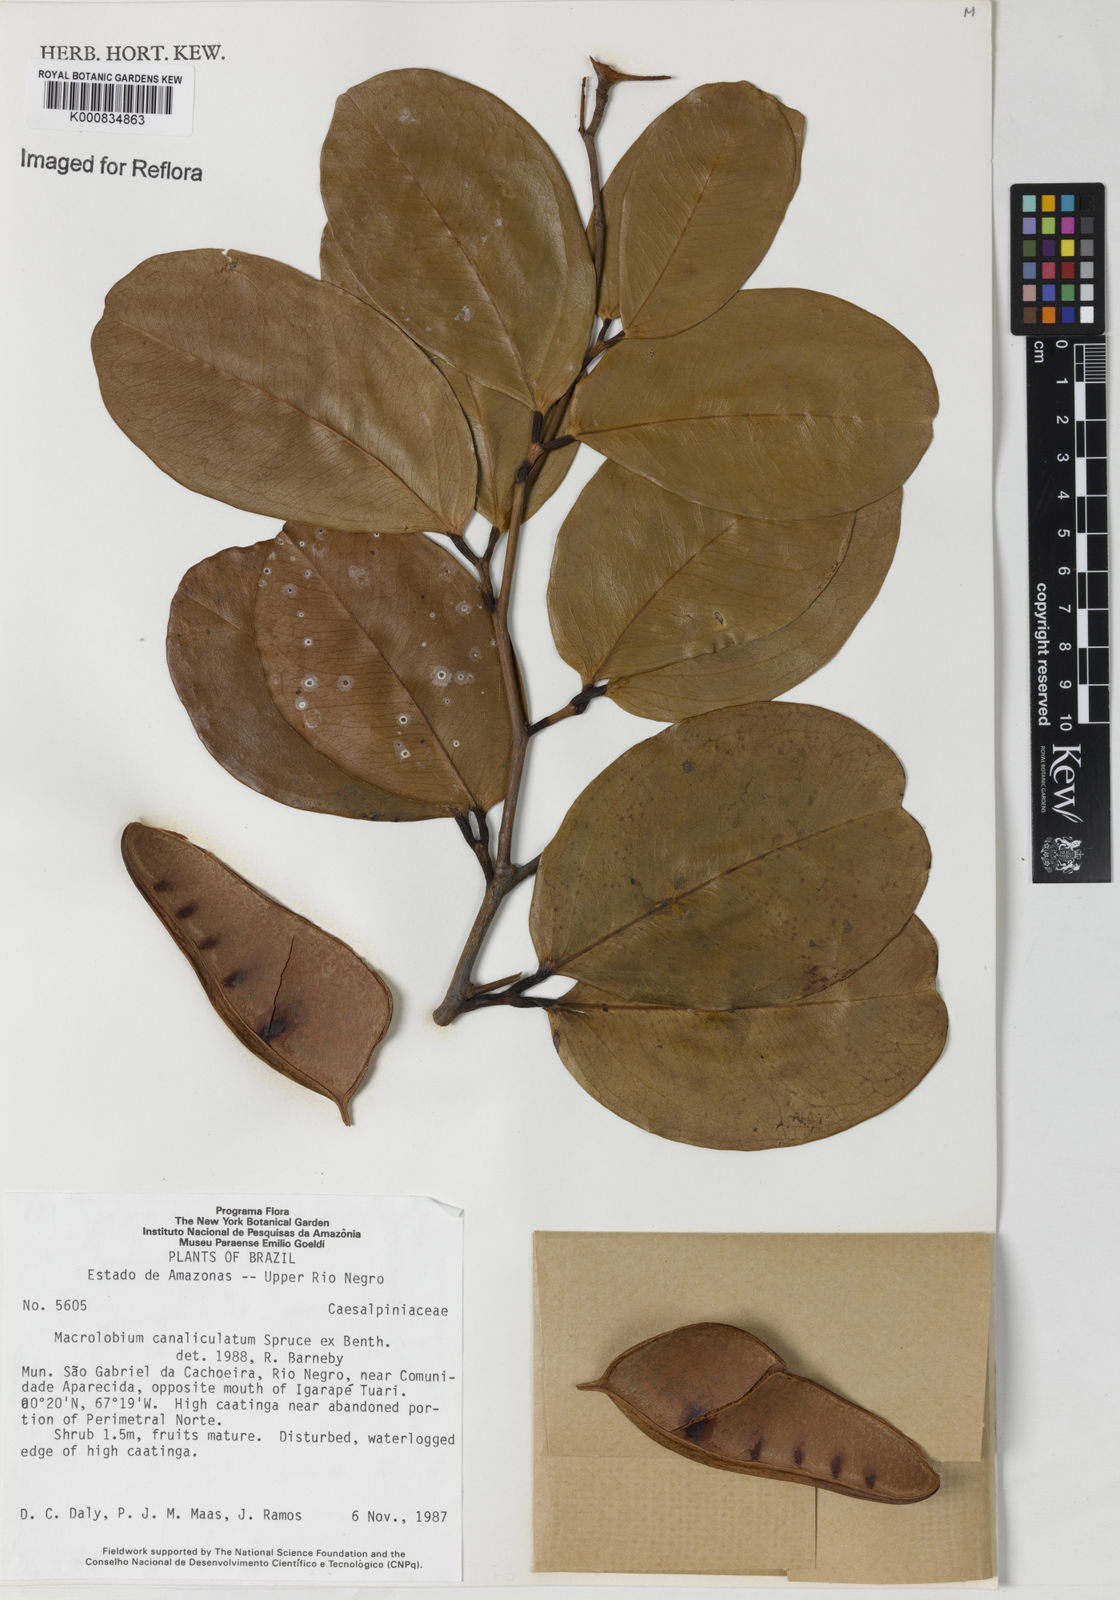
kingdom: Plantae
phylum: Tracheophyta
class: Magnoliopsida
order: Fabales
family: Fabaceae
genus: Macrolobium
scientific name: Macrolobium
